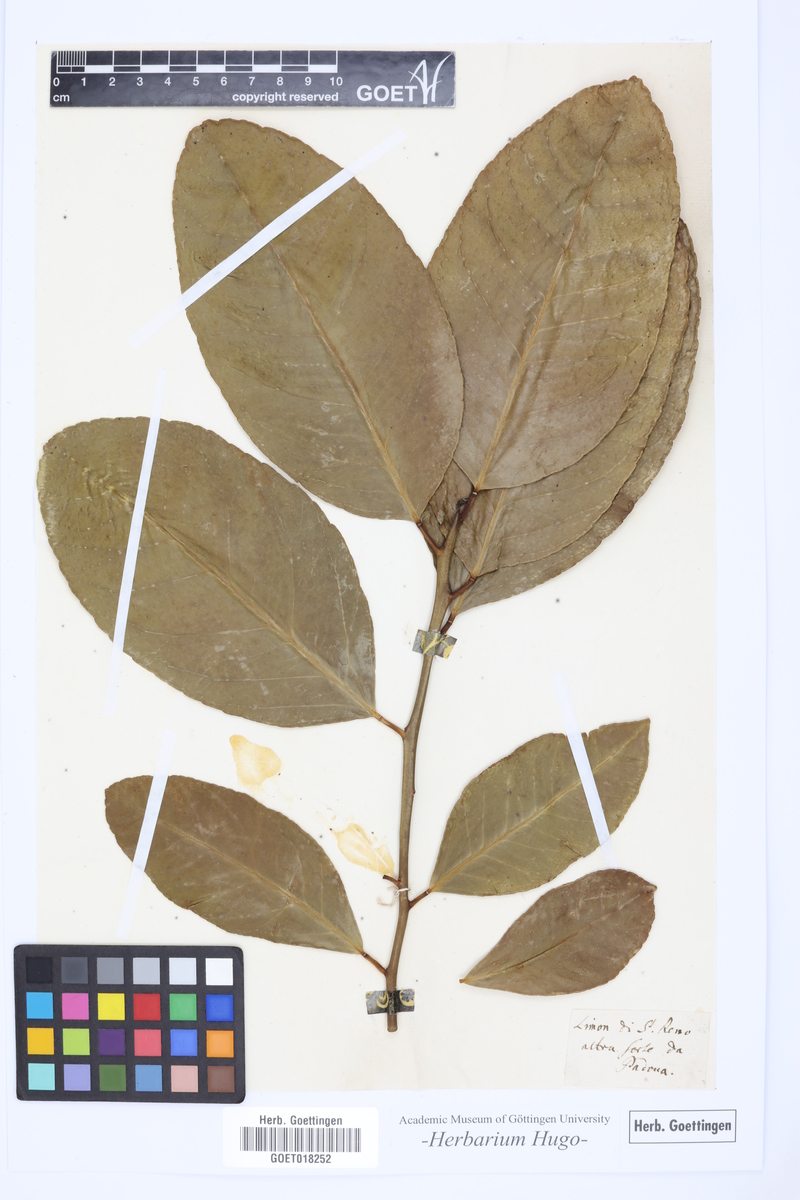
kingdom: Plantae
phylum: Tracheophyta
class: Magnoliopsida
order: Sapindales
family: Rutaceae
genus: Citrus
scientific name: Citrus
